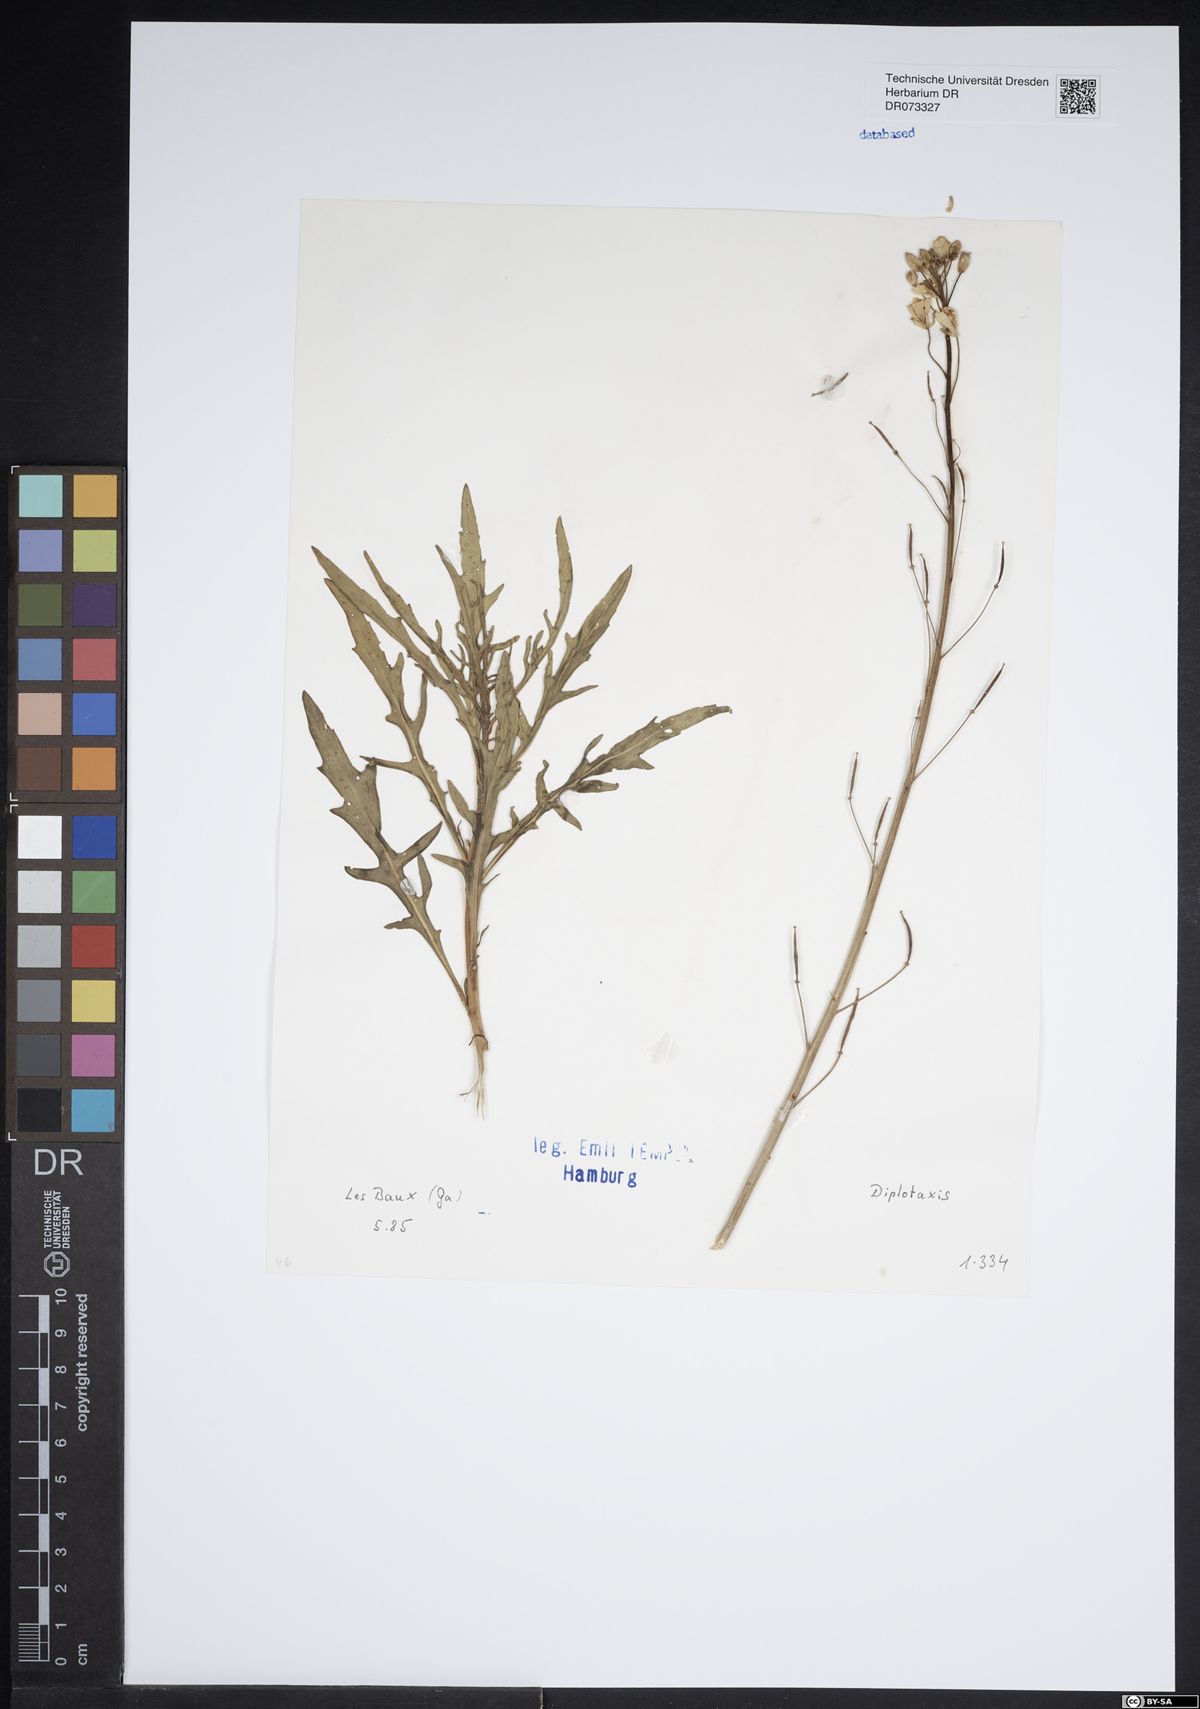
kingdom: Plantae
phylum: Tracheophyta
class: Magnoliopsida
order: Brassicales
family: Brassicaceae
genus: Diplotaxis
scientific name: Diplotaxis
